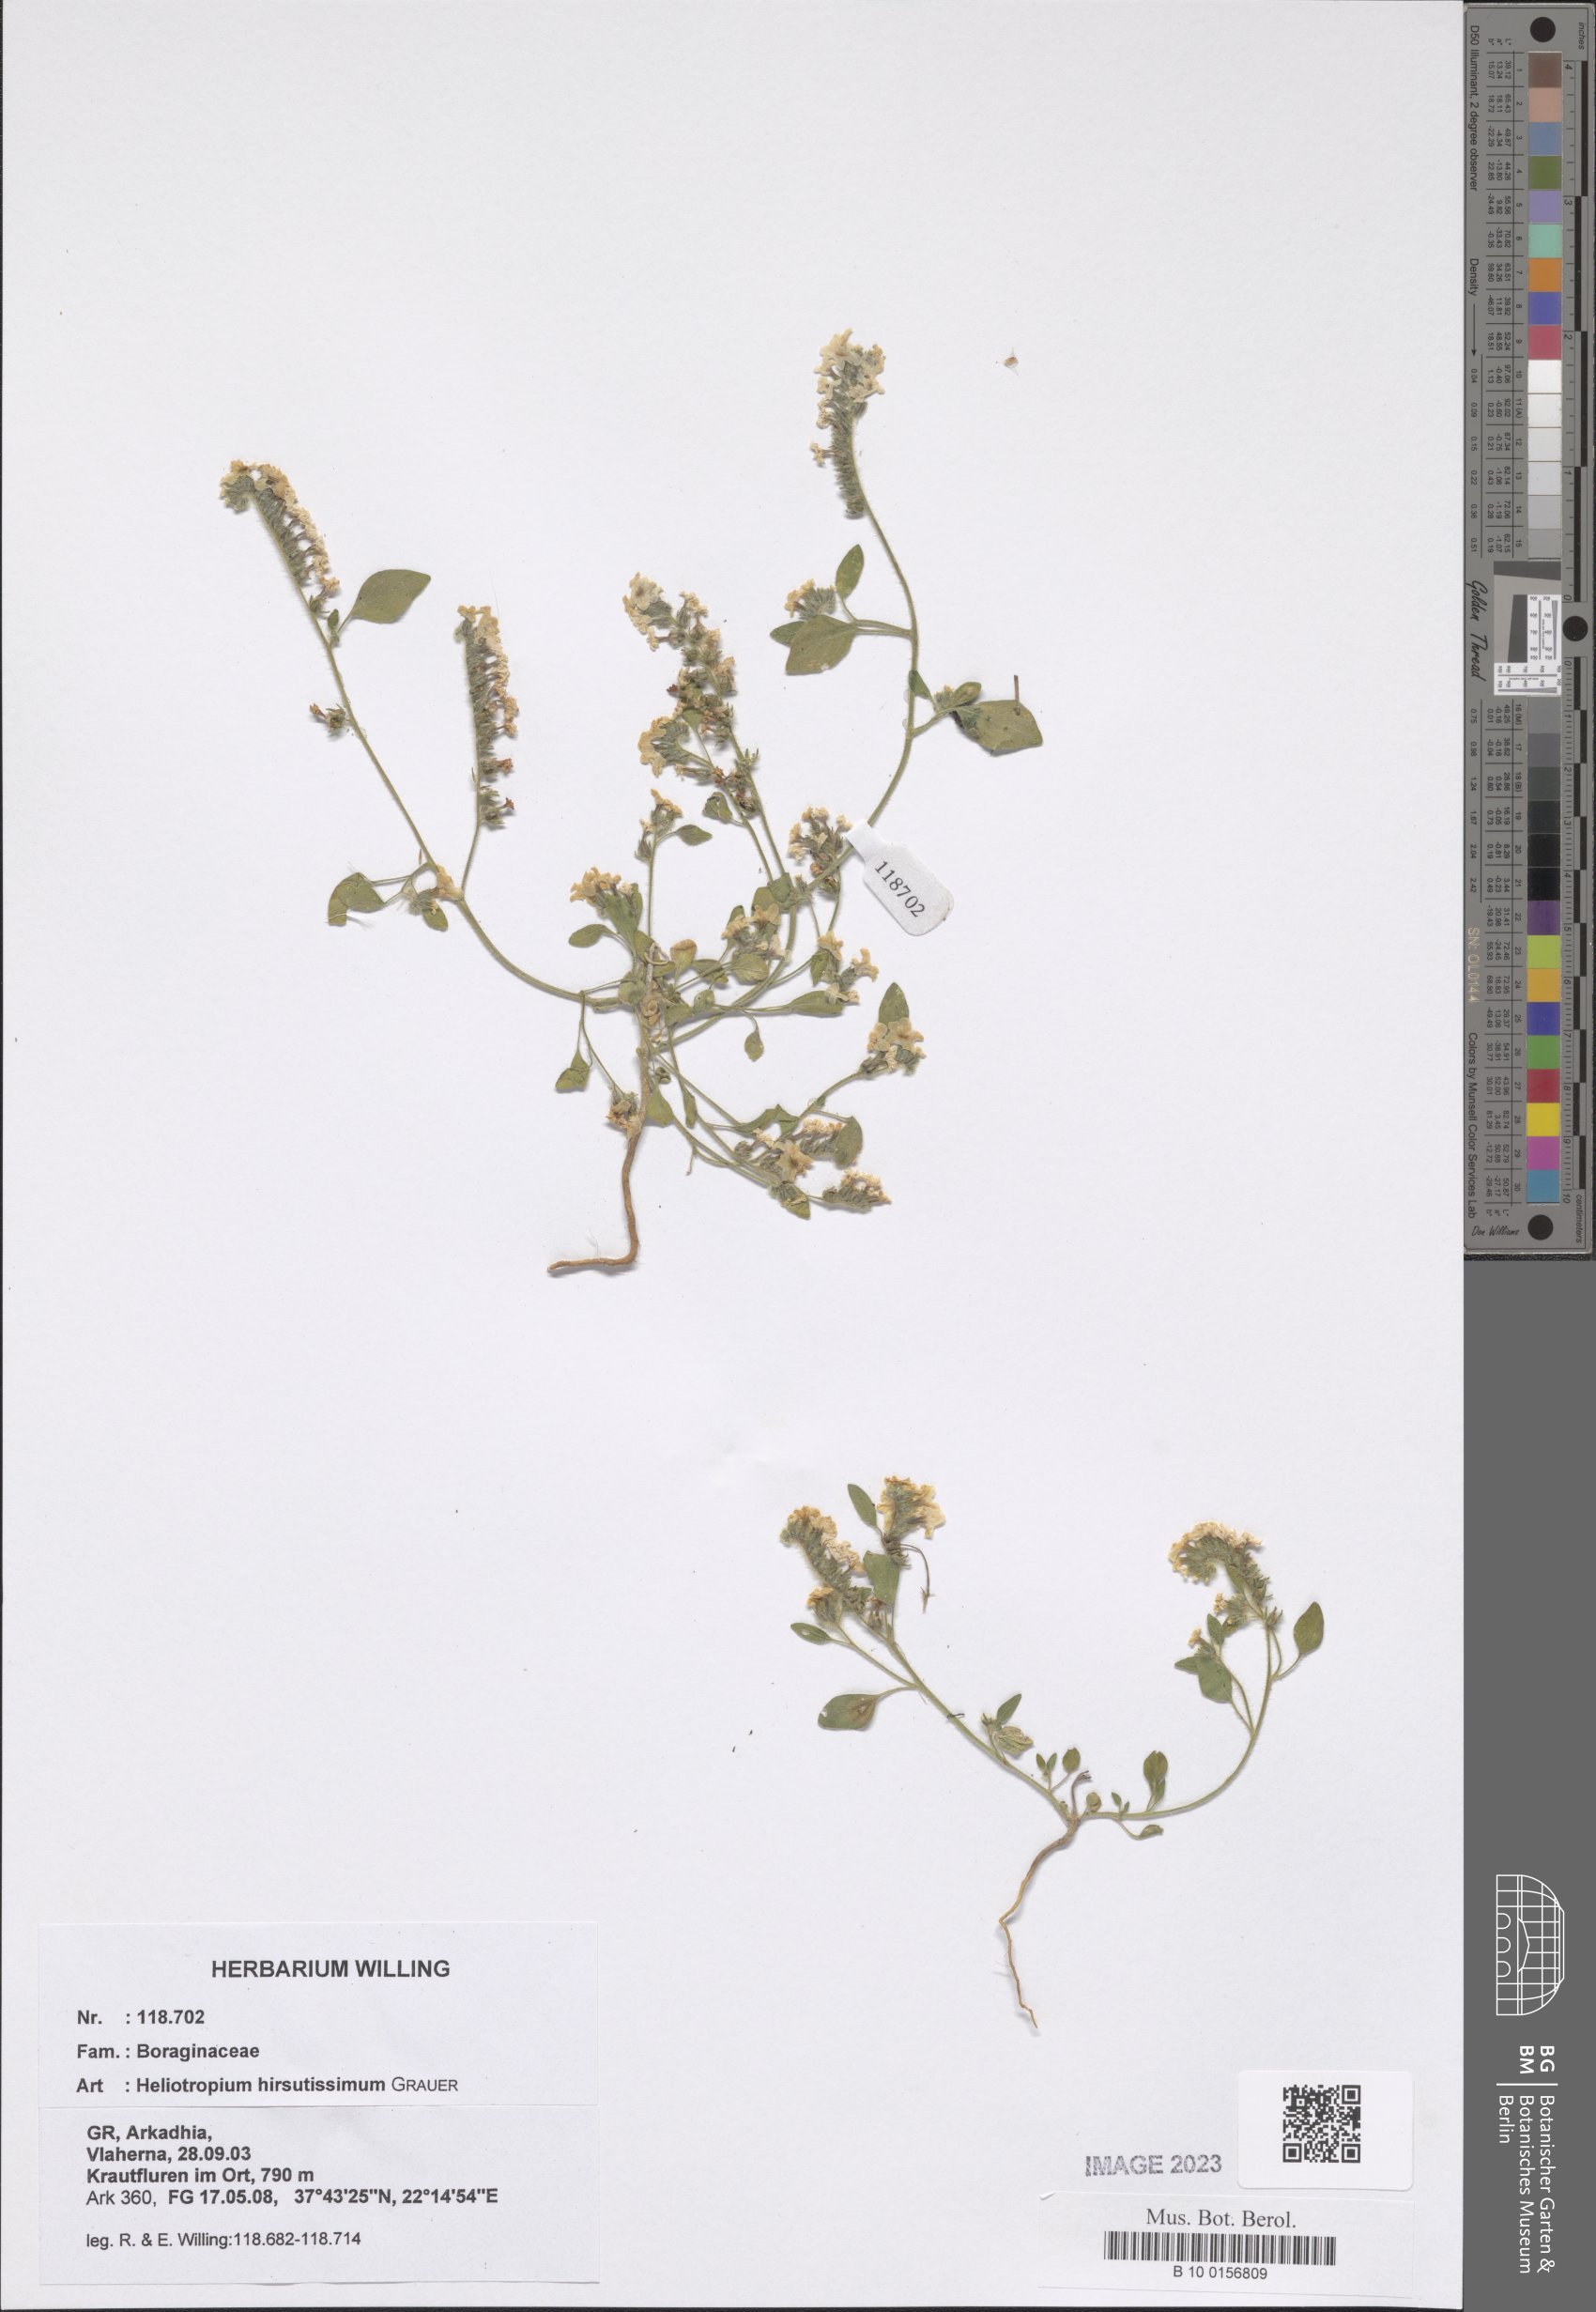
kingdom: Plantae
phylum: Tracheophyta
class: Magnoliopsida
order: Boraginales
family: Heliotropiaceae
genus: Heliotropium
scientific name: Heliotropium hirsutissimum
